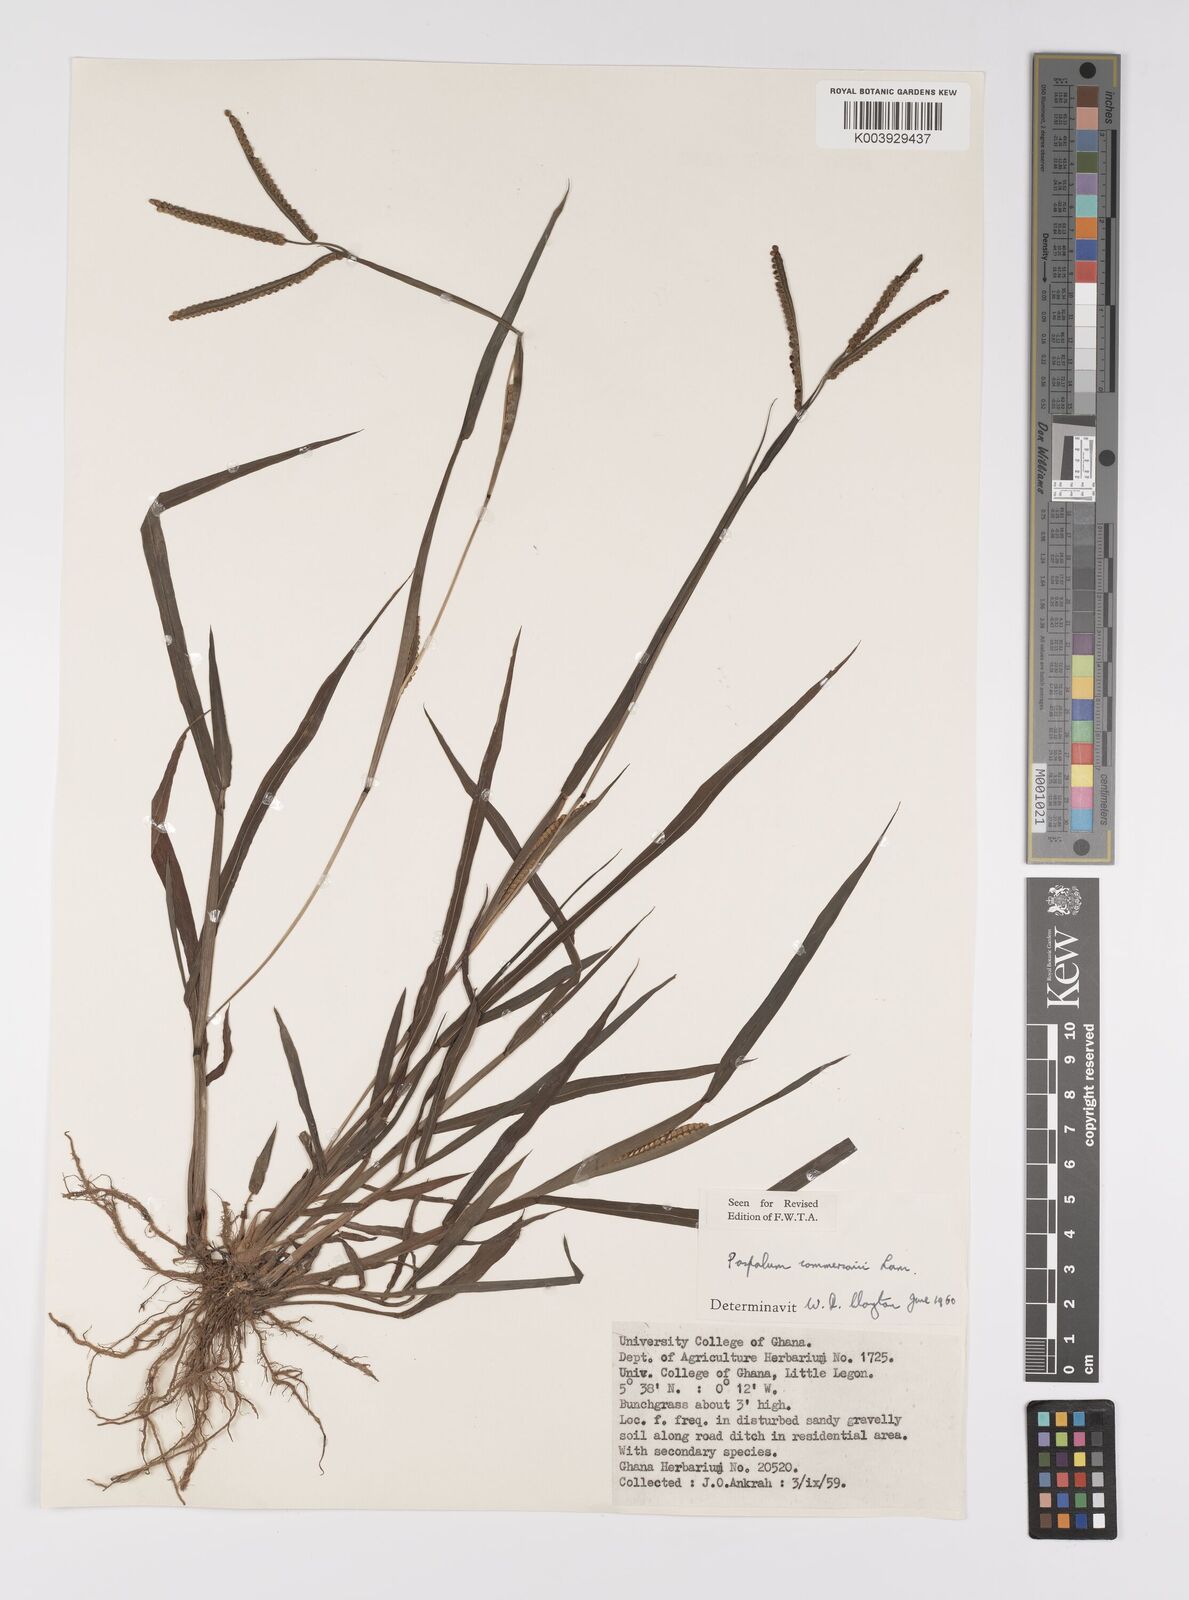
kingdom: Plantae
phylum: Tracheophyta
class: Liliopsida
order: Poales
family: Poaceae
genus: Paspalum
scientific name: Paspalum scrobiculatum
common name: Kodo millet
